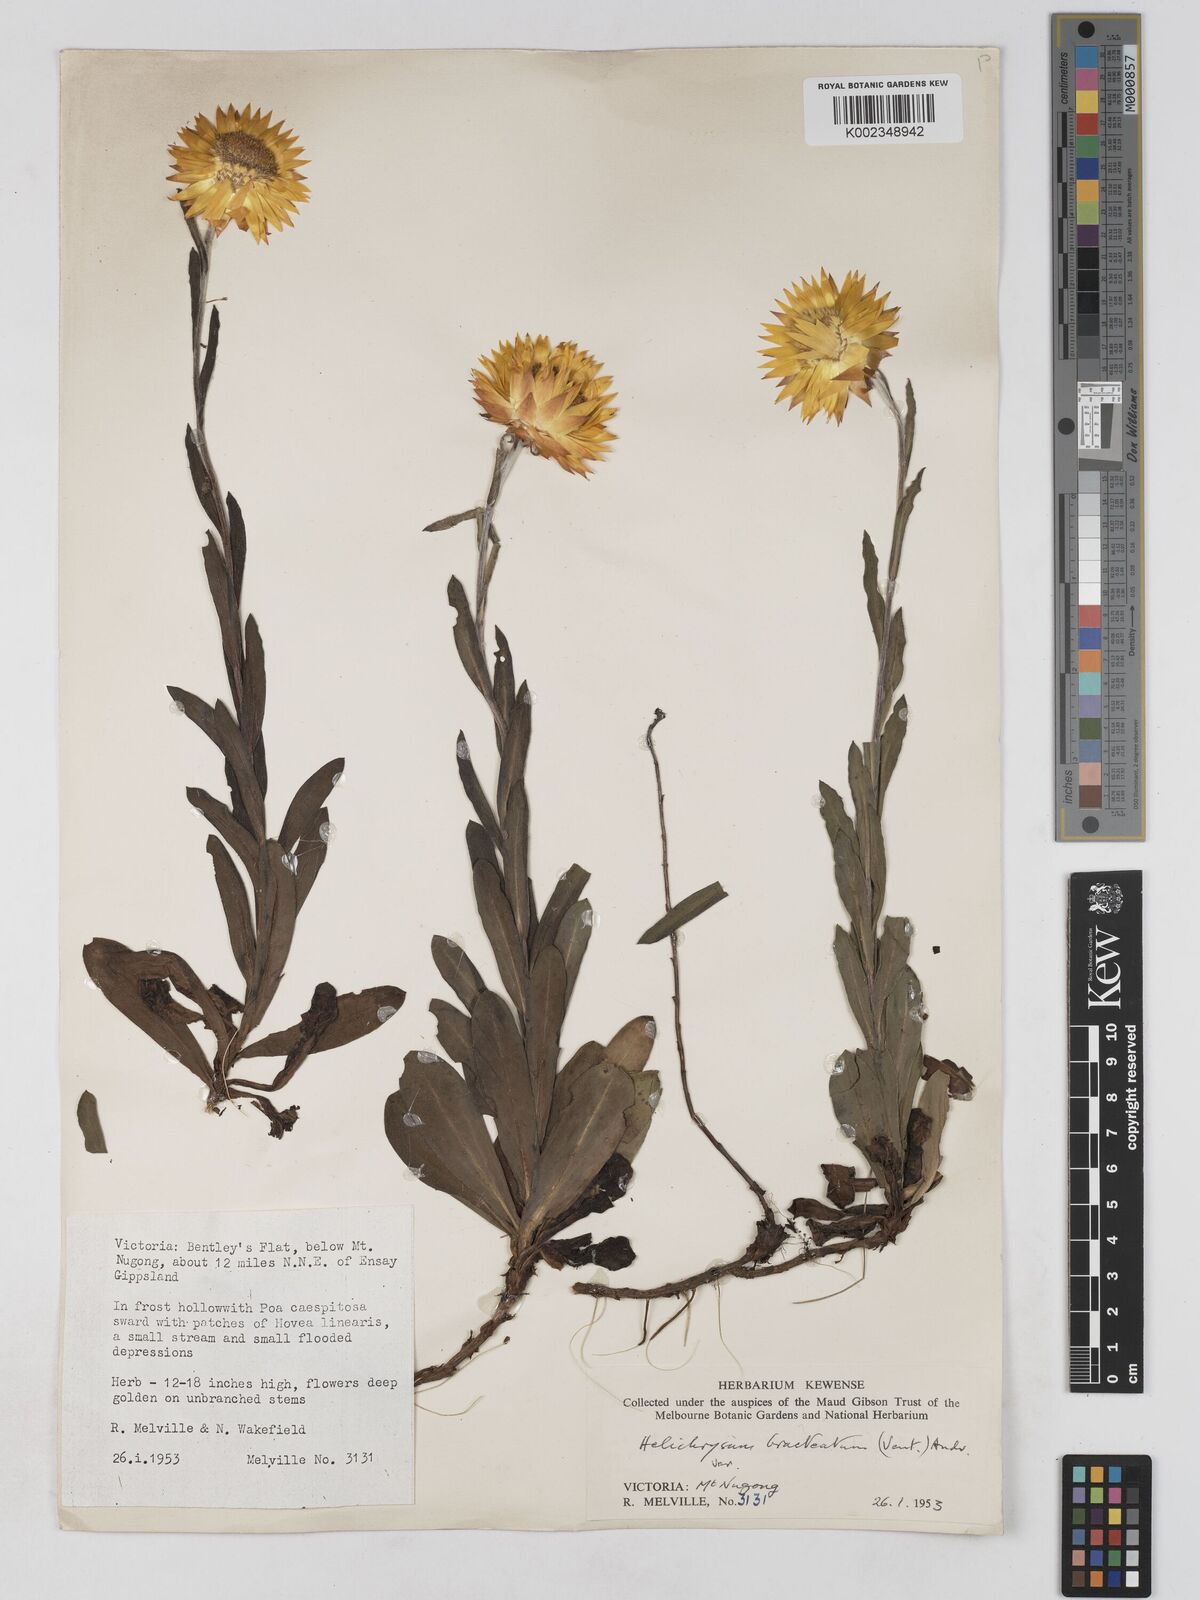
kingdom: Plantae
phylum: Tracheophyta
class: Magnoliopsida
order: Asterales
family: Asteraceae
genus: Xerochrysum
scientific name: Xerochrysum bracteatum
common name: Bracted strawflower
